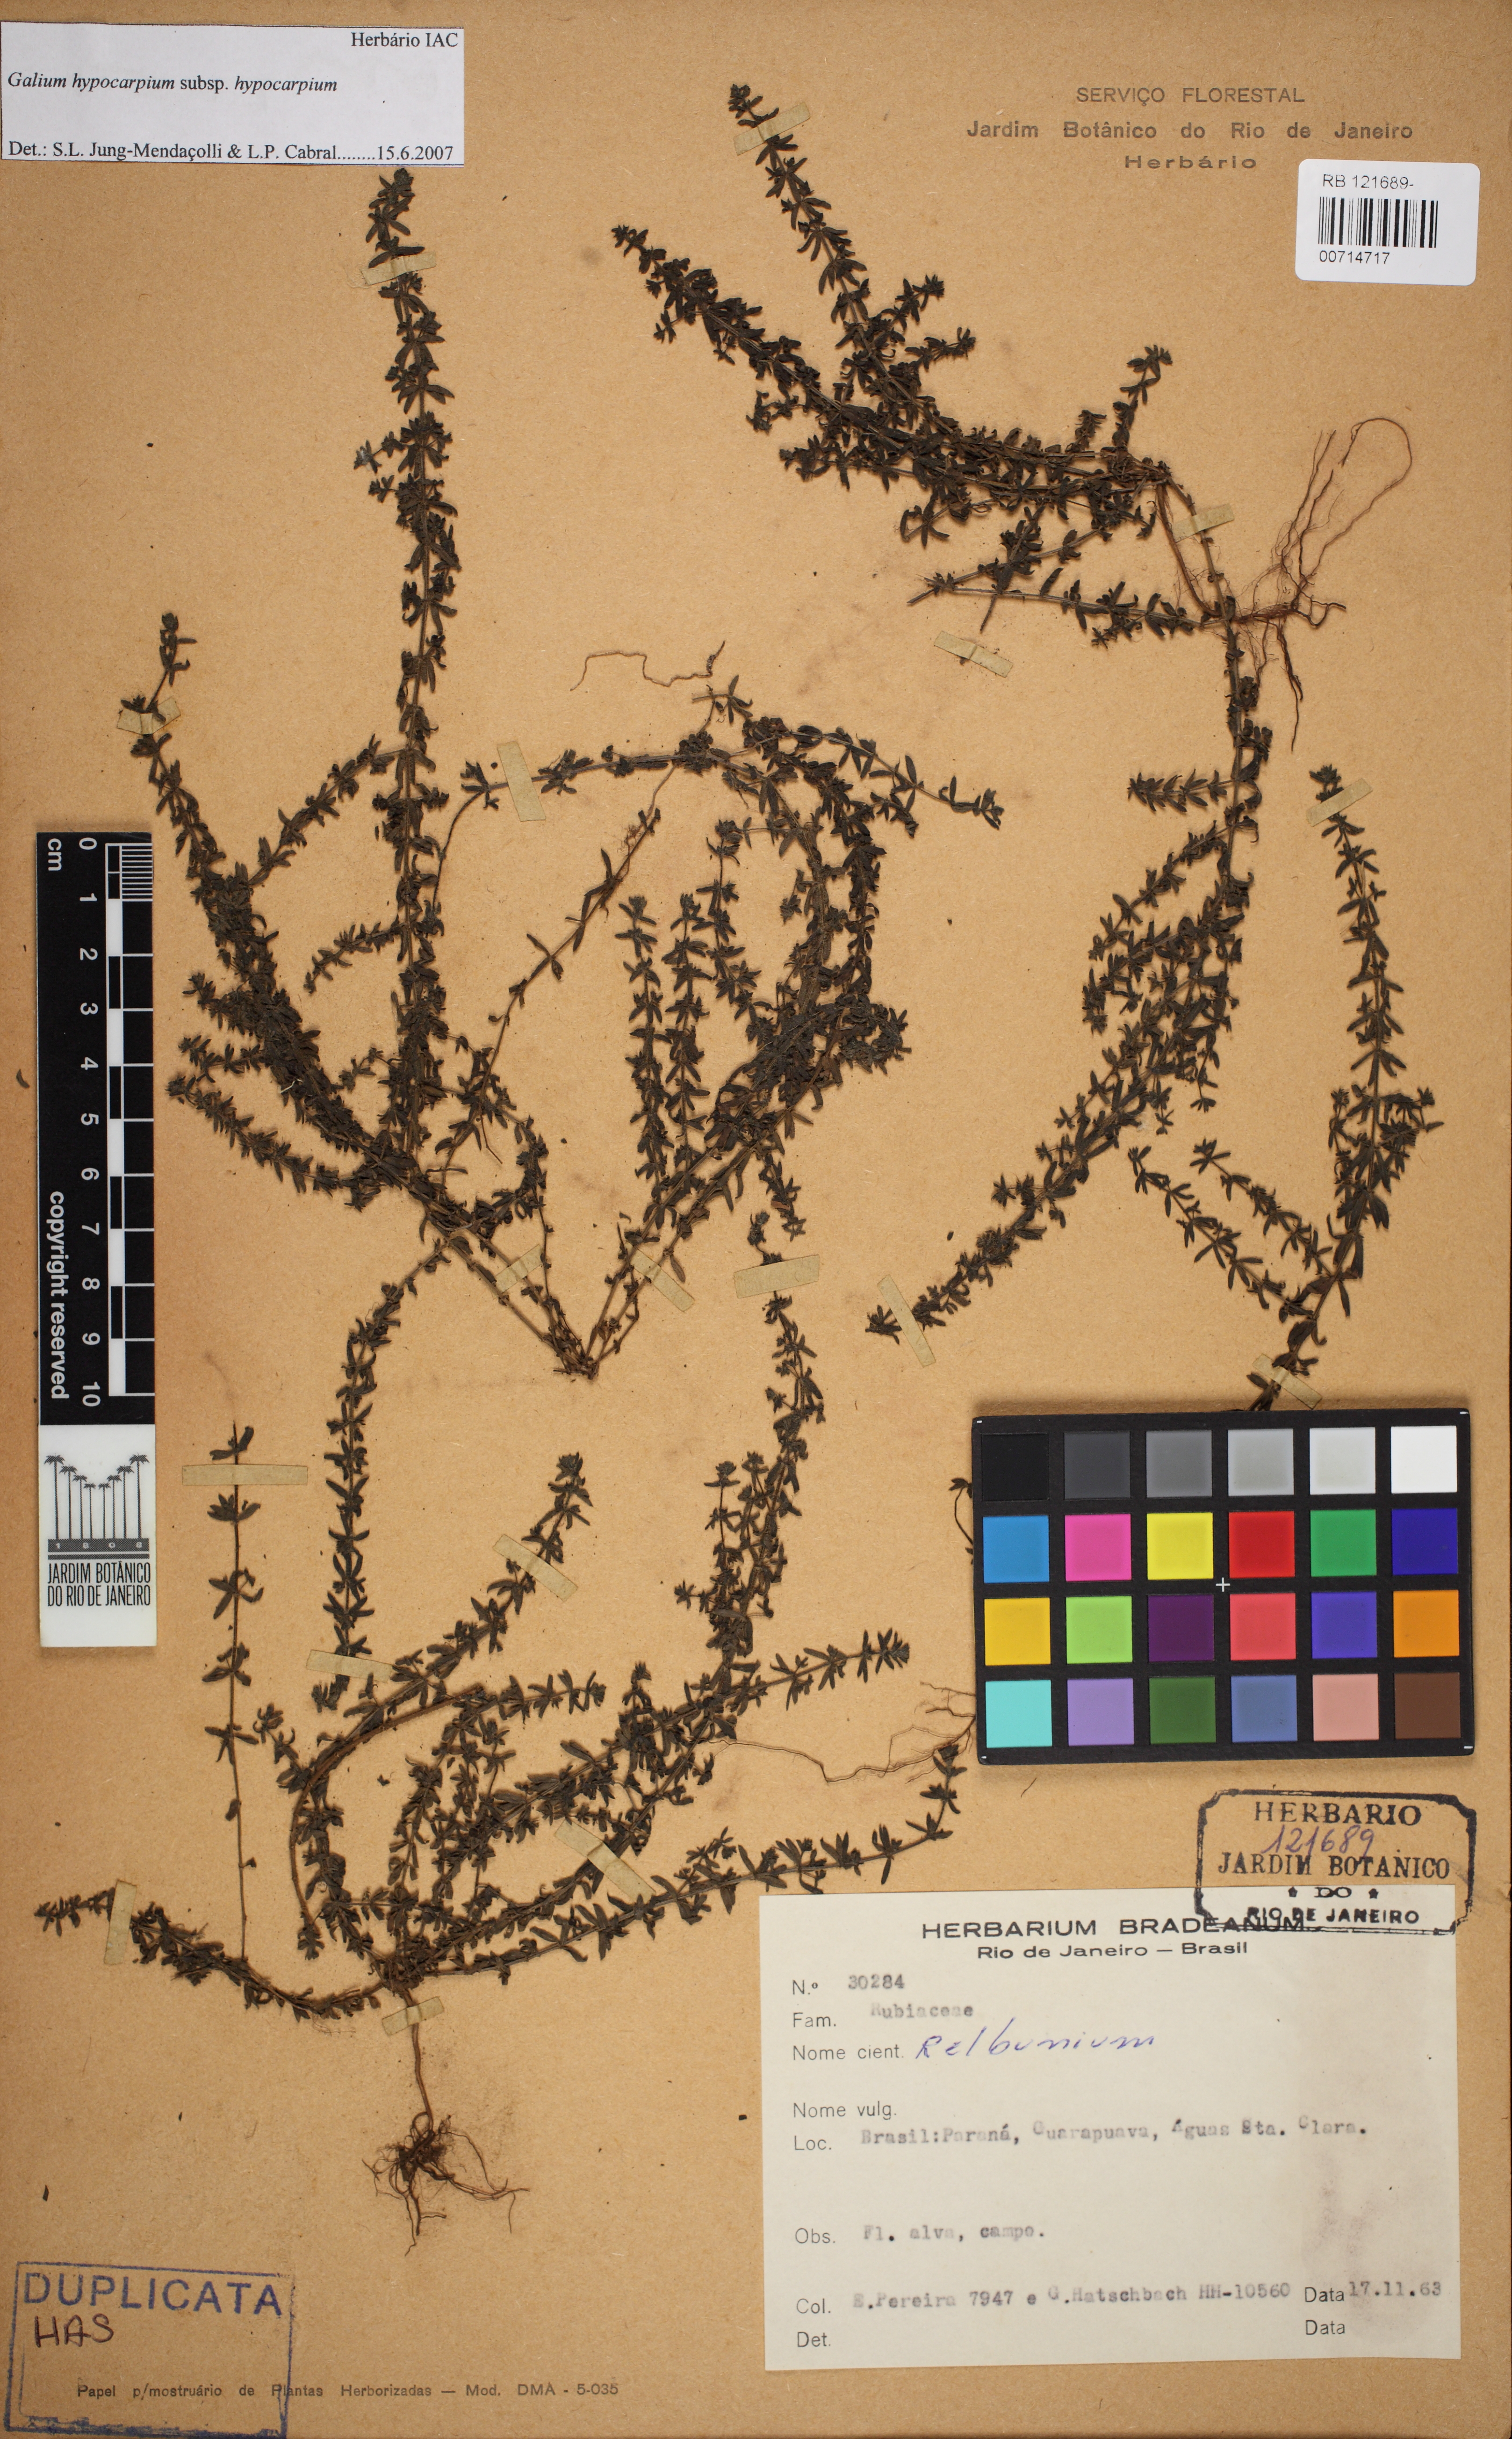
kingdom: Plantae
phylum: Tracheophyta
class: Magnoliopsida
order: Gentianales
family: Rubiaceae
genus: Galium
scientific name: Galium hypocarpium
